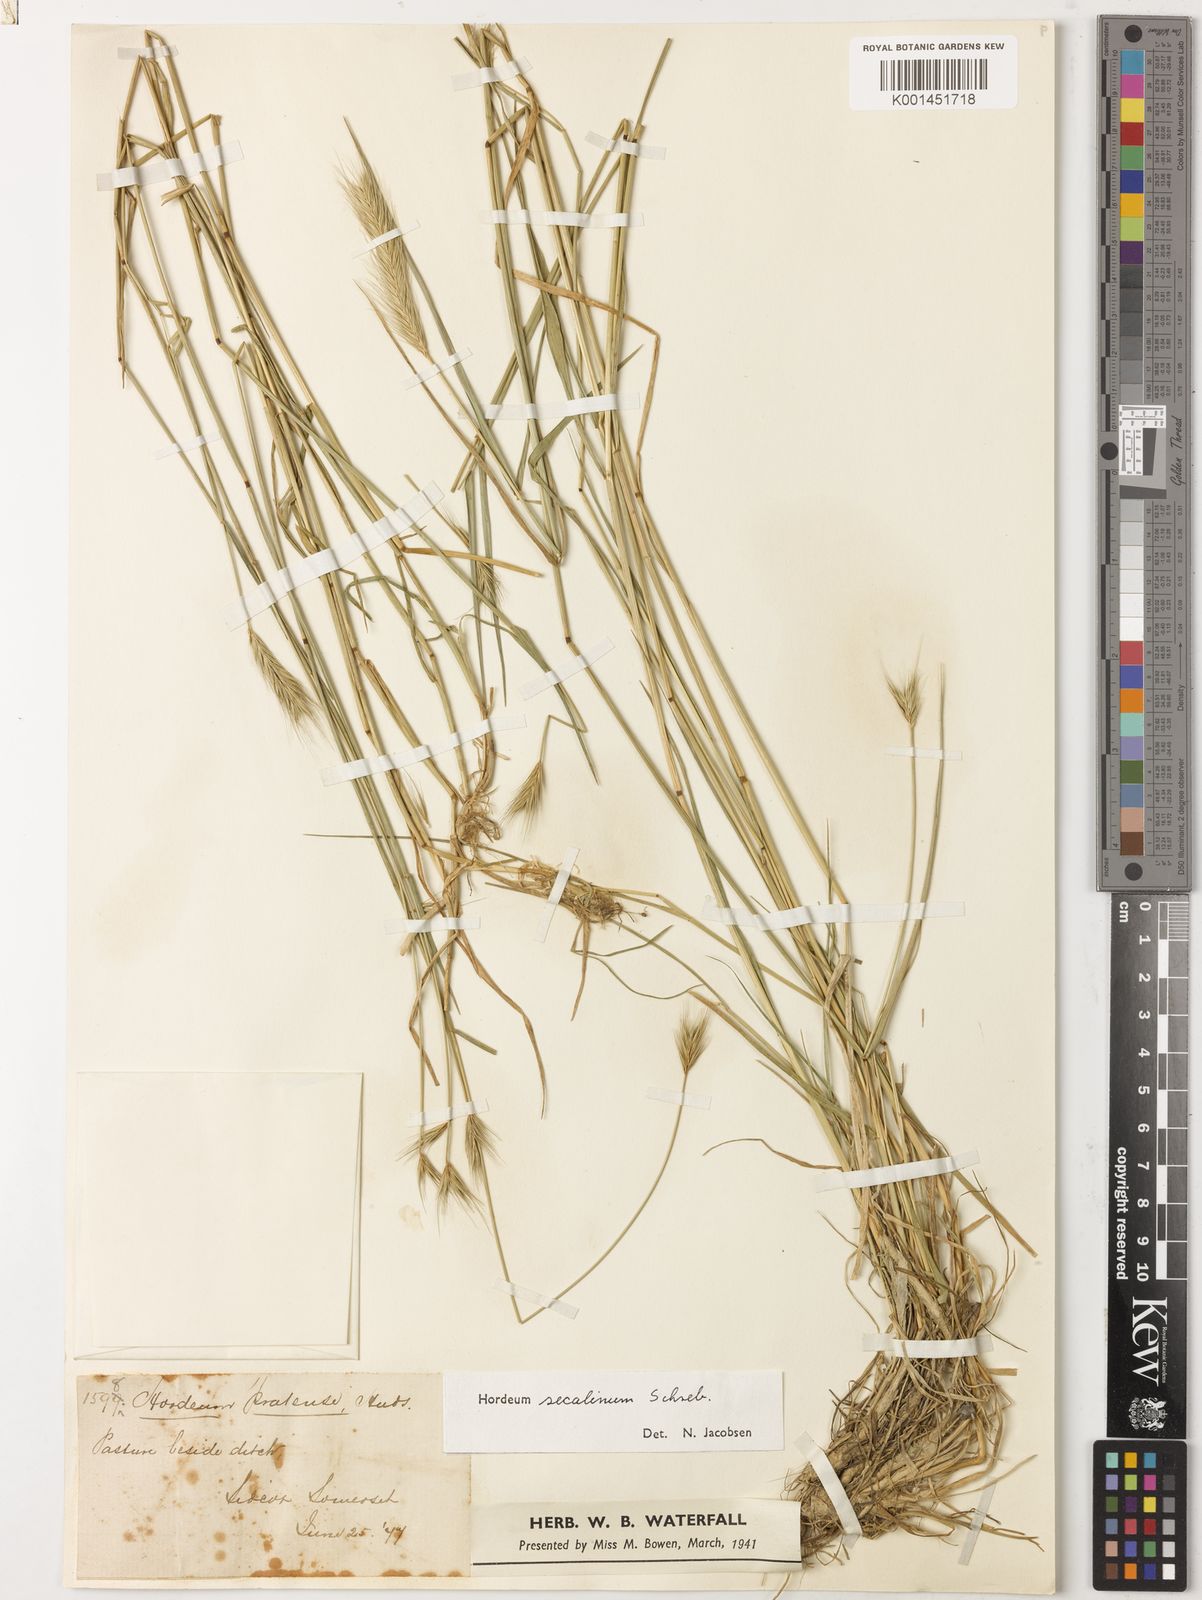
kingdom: Plantae
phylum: Tracheophyta
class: Liliopsida
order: Poales
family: Poaceae
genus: Hordeum
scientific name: Hordeum secalinum
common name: Meadow barley
